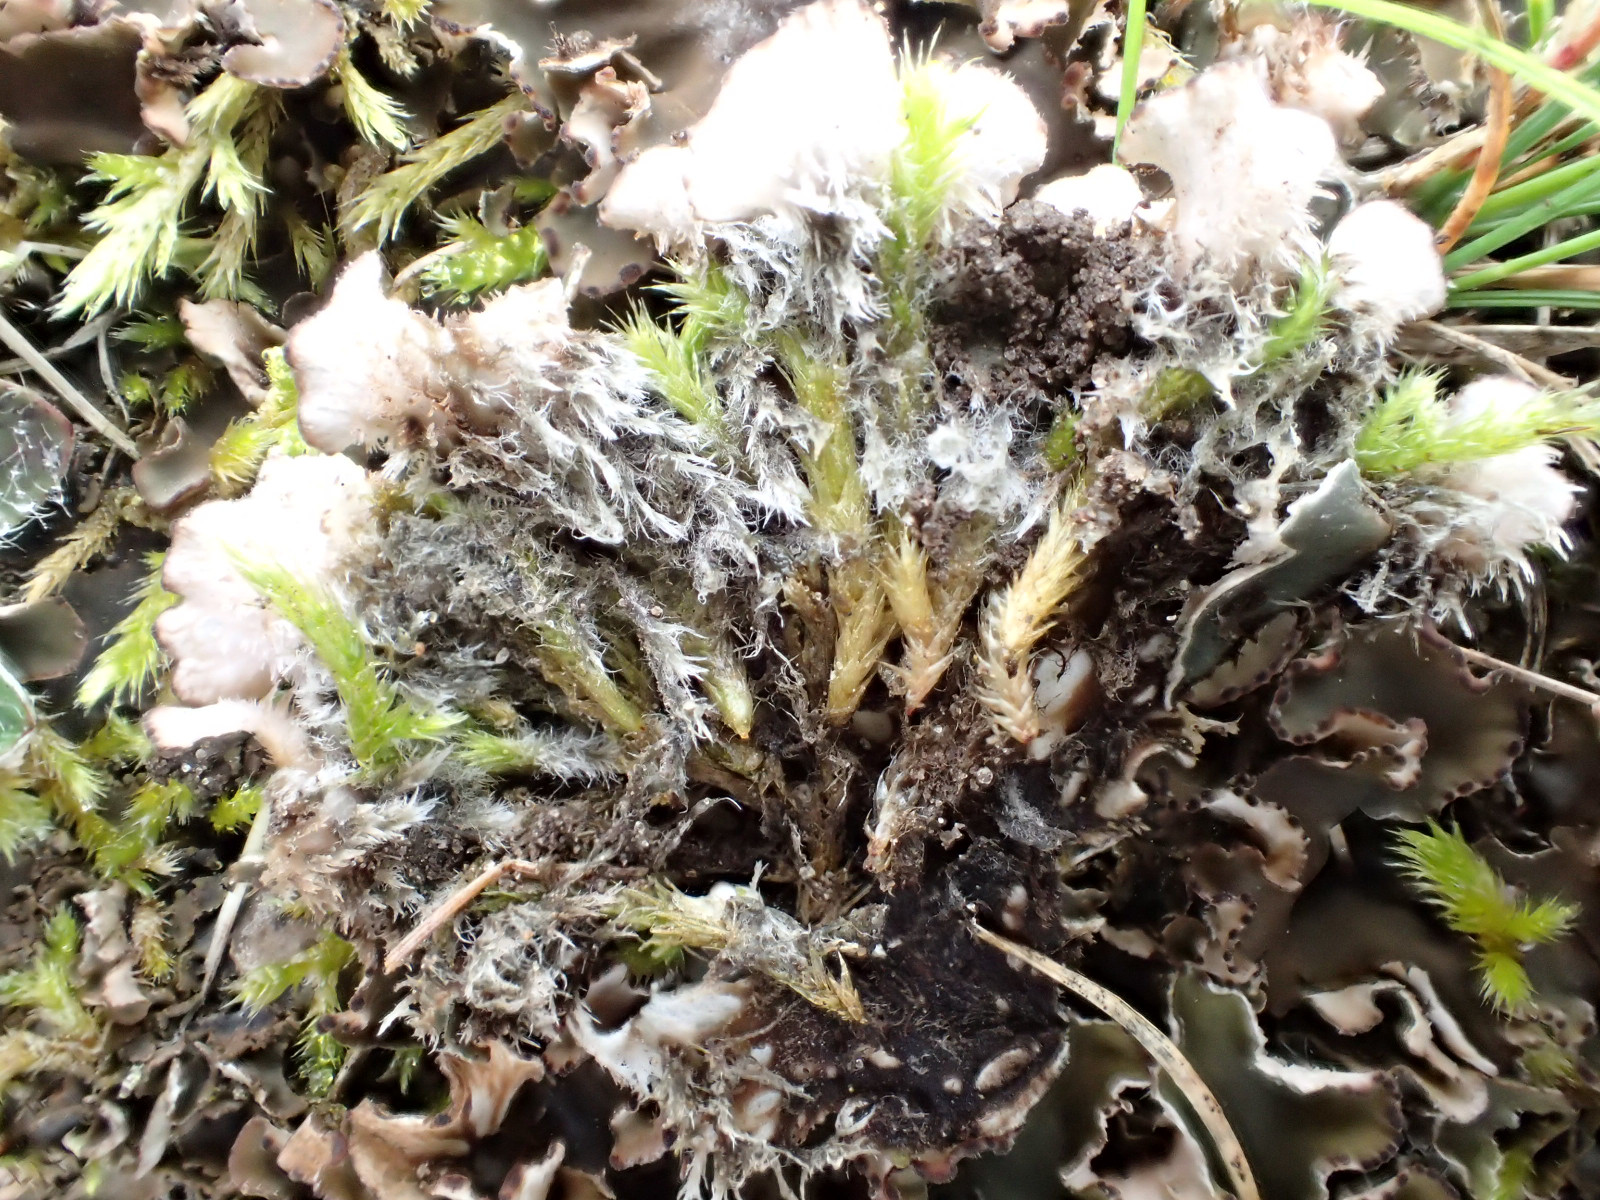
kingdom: Fungi
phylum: Ascomycota
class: Lecanoromycetes
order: Peltigerales
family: Peltigeraceae
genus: Peltigera
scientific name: Peltigera rufescens
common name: brun skjoldlav
